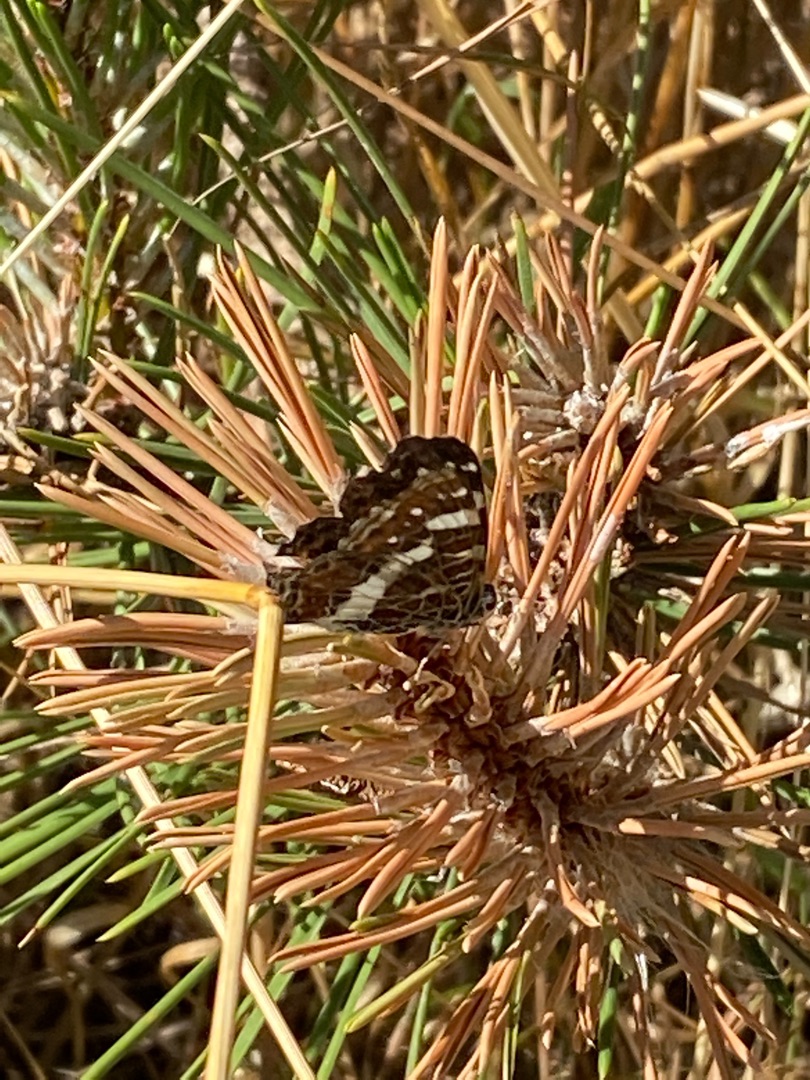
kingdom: Animalia
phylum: Arthropoda
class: Insecta
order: Lepidoptera
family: Nymphalidae
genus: Araschnia
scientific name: Araschnia levana
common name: Nældesommerfugl
